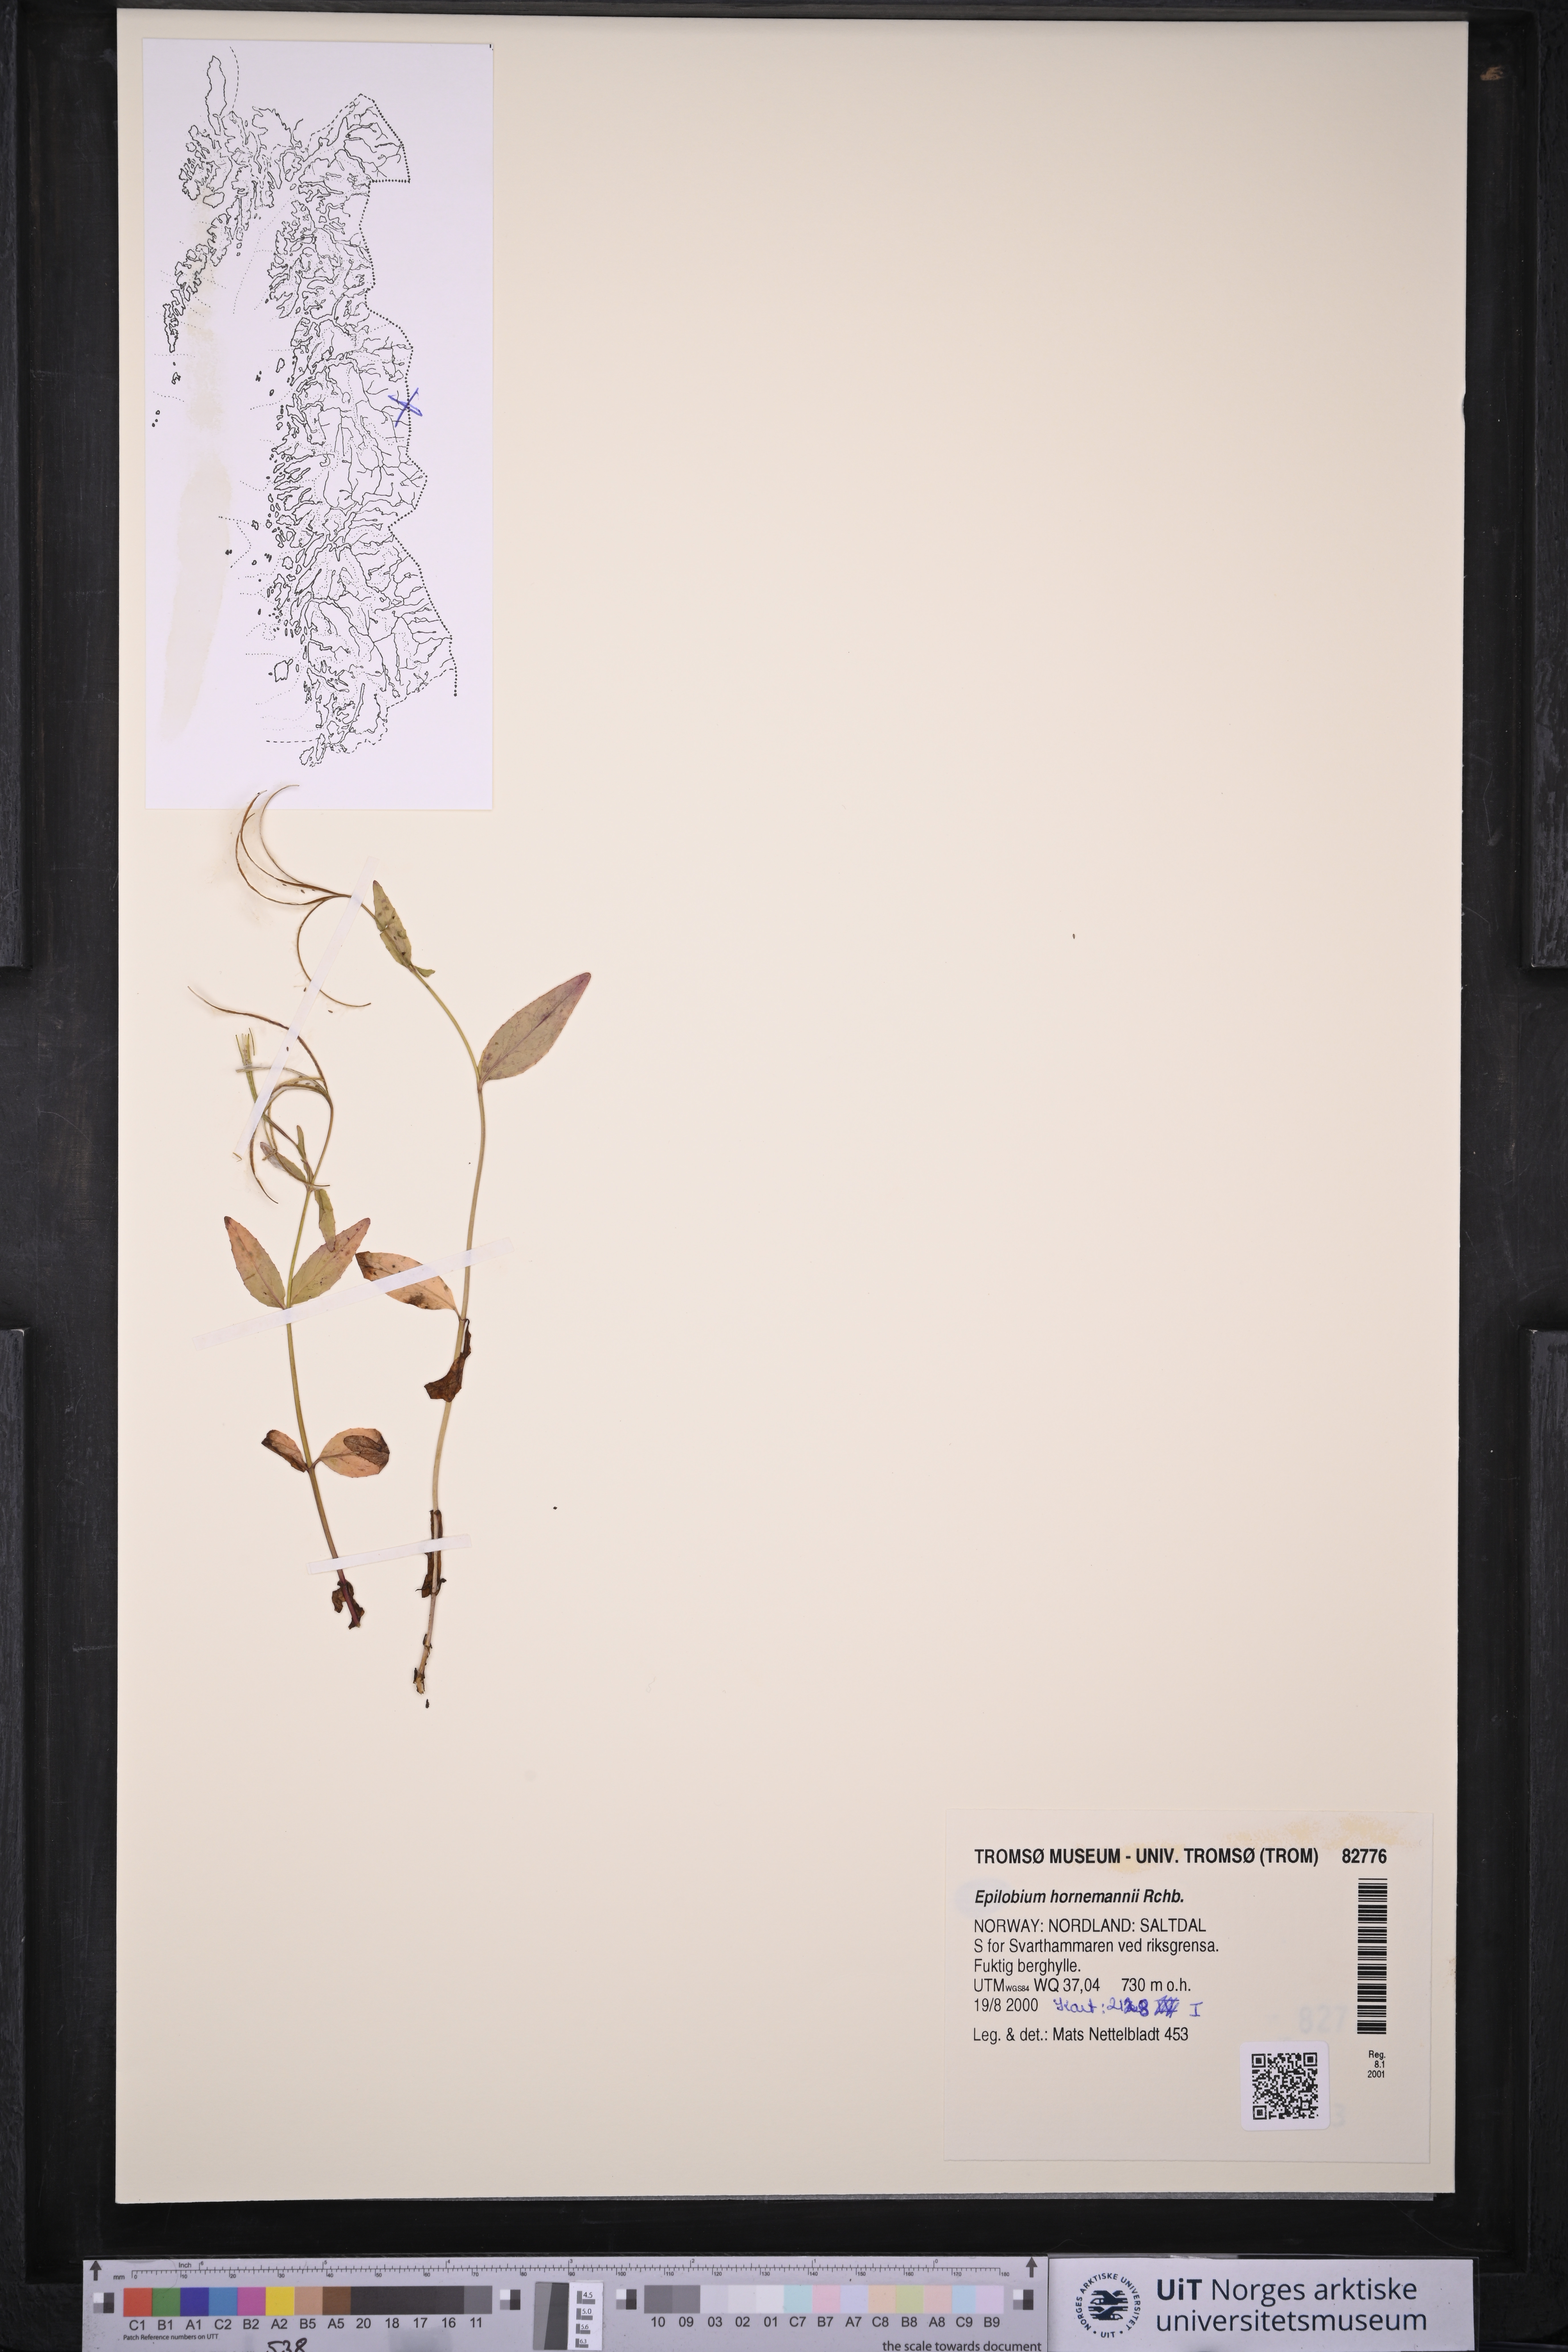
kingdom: Plantae
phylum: Tracheophyta
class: Magnoliopsida
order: Myrtales
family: Onagraceae
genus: Epilobium
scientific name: Epilobium hornemannii
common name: Hornemann's willowherb
